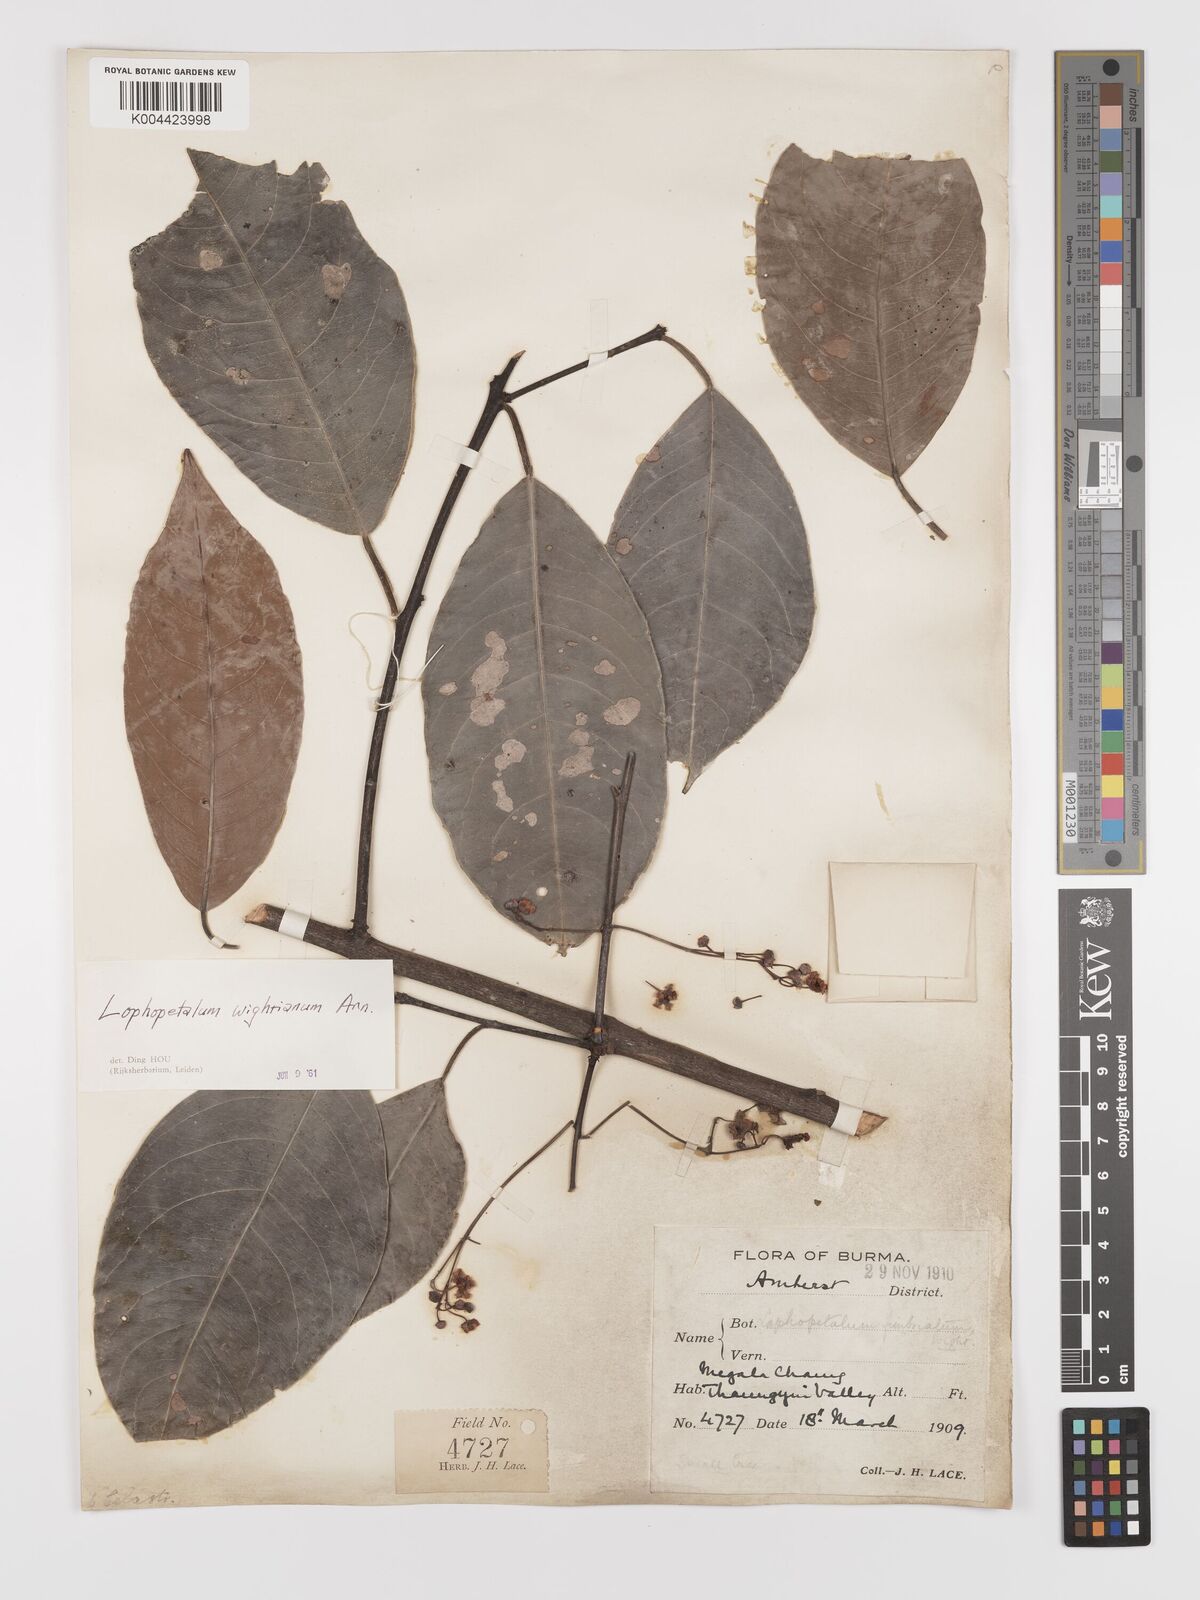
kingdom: Plantae
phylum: Tracheophyta
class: Magnoliopsida
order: Celastrales
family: Celastraceae
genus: Lophopetalum
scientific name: Lophopetalum wightianum
